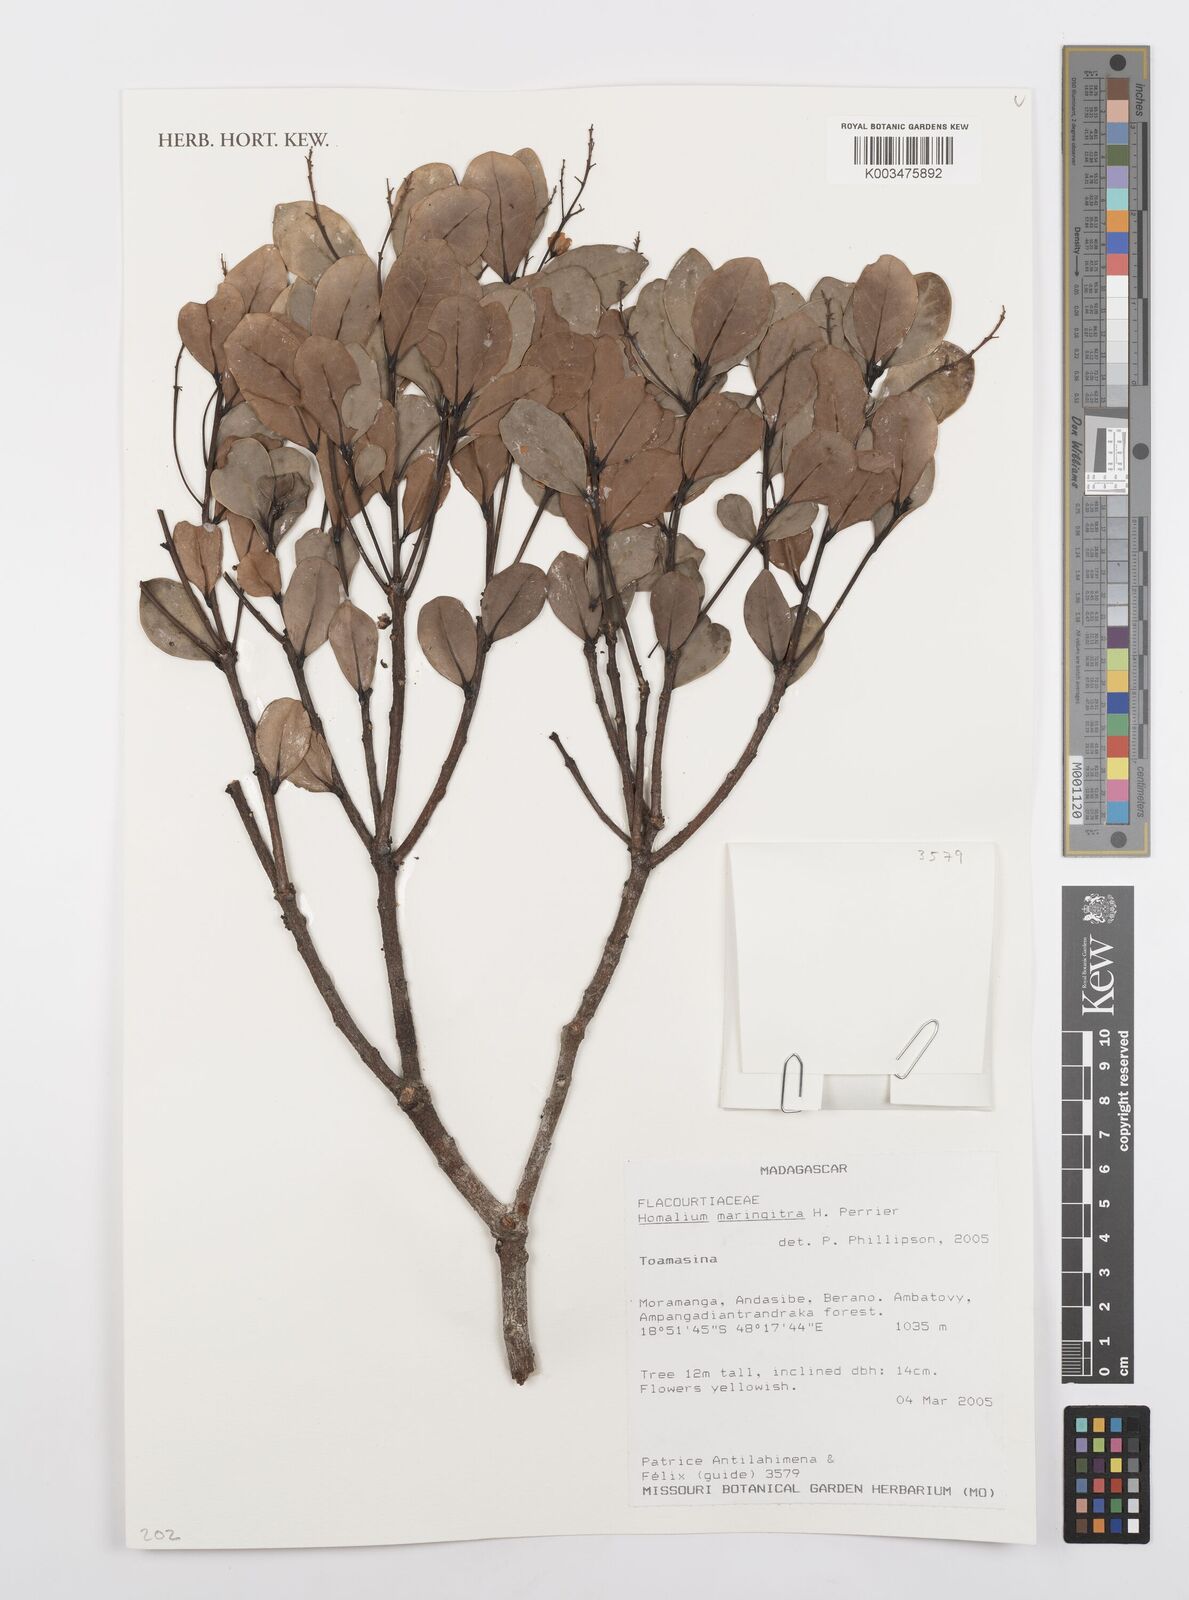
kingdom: Plantae
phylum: Tracheophyta
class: Magnoliopsida
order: Malpighiales
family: Salicaceae
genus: Homalium
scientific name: Homalium maringitra
